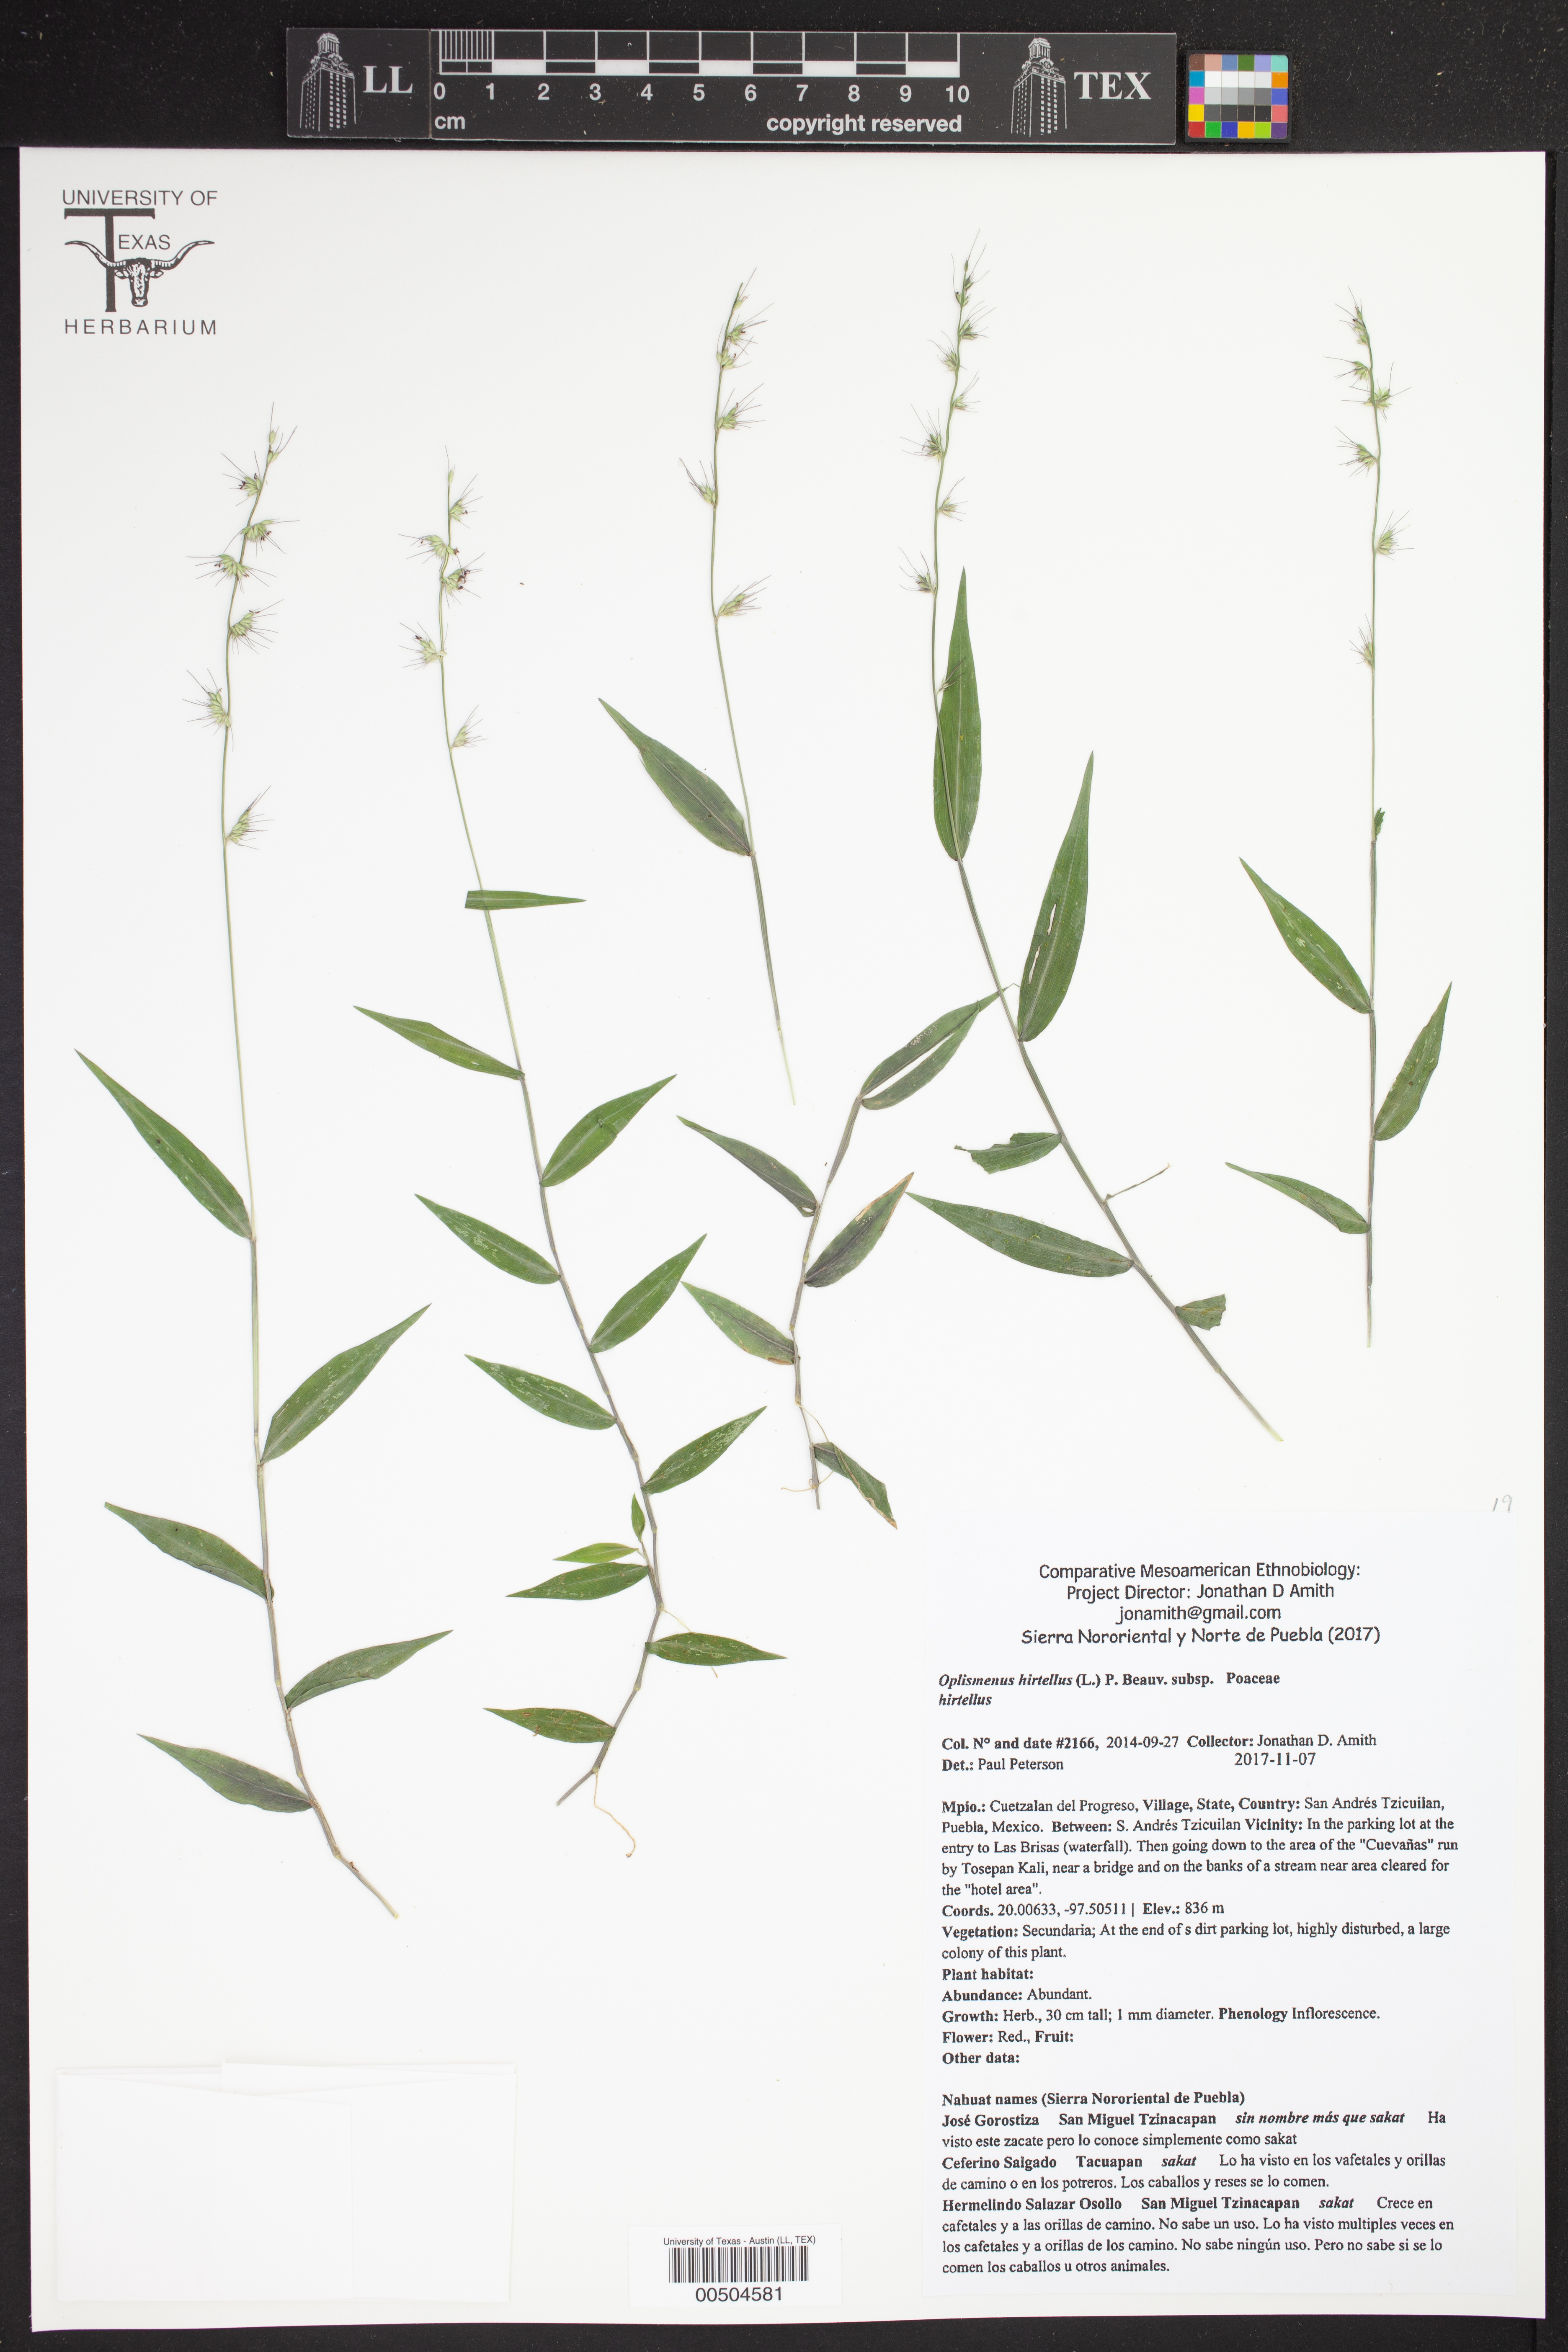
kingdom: Plantae
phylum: Tracheophyta
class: Liliopsida
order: Poales
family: Poaceae
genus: Oplismenus
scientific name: Oplismenus hirtellus
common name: Basketgrass
